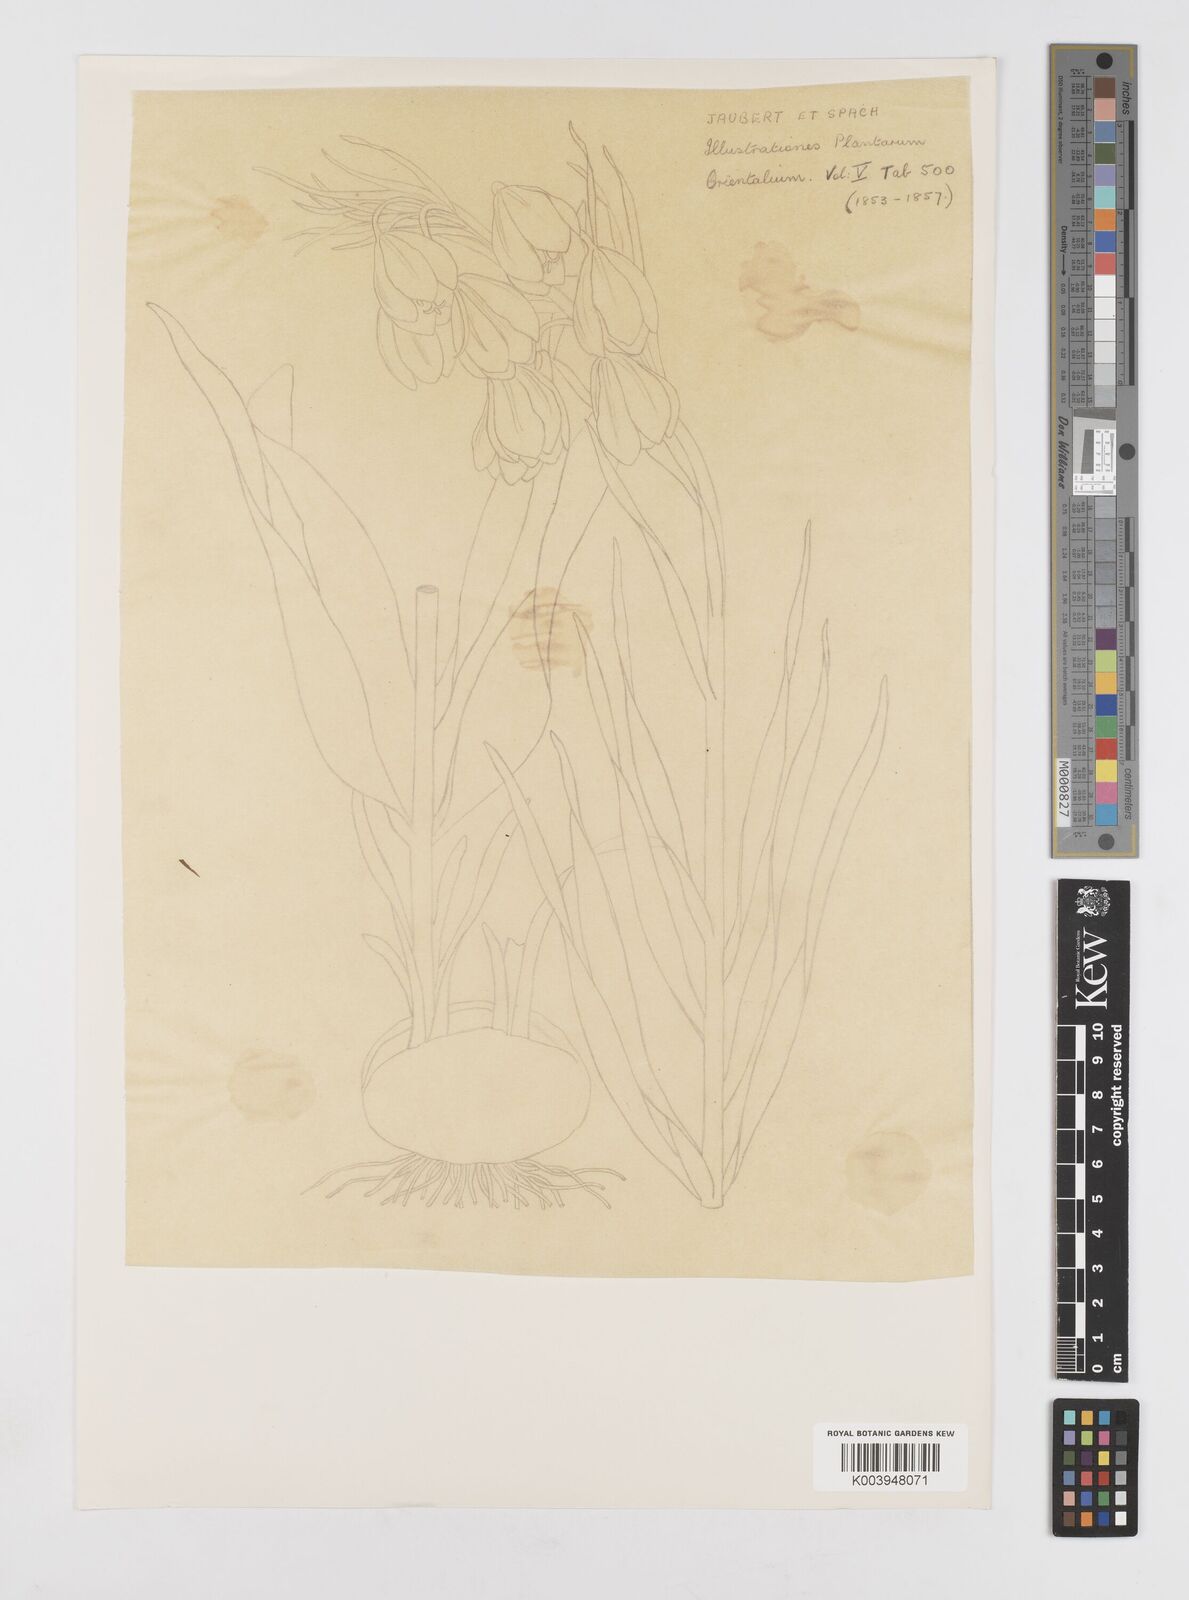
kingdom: Plantae
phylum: Tracheophyta
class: Liliopsida
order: Liliales
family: Liliaceae
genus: Fritillaria
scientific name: Fritillaria liliacea
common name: Fragrant fritillary
